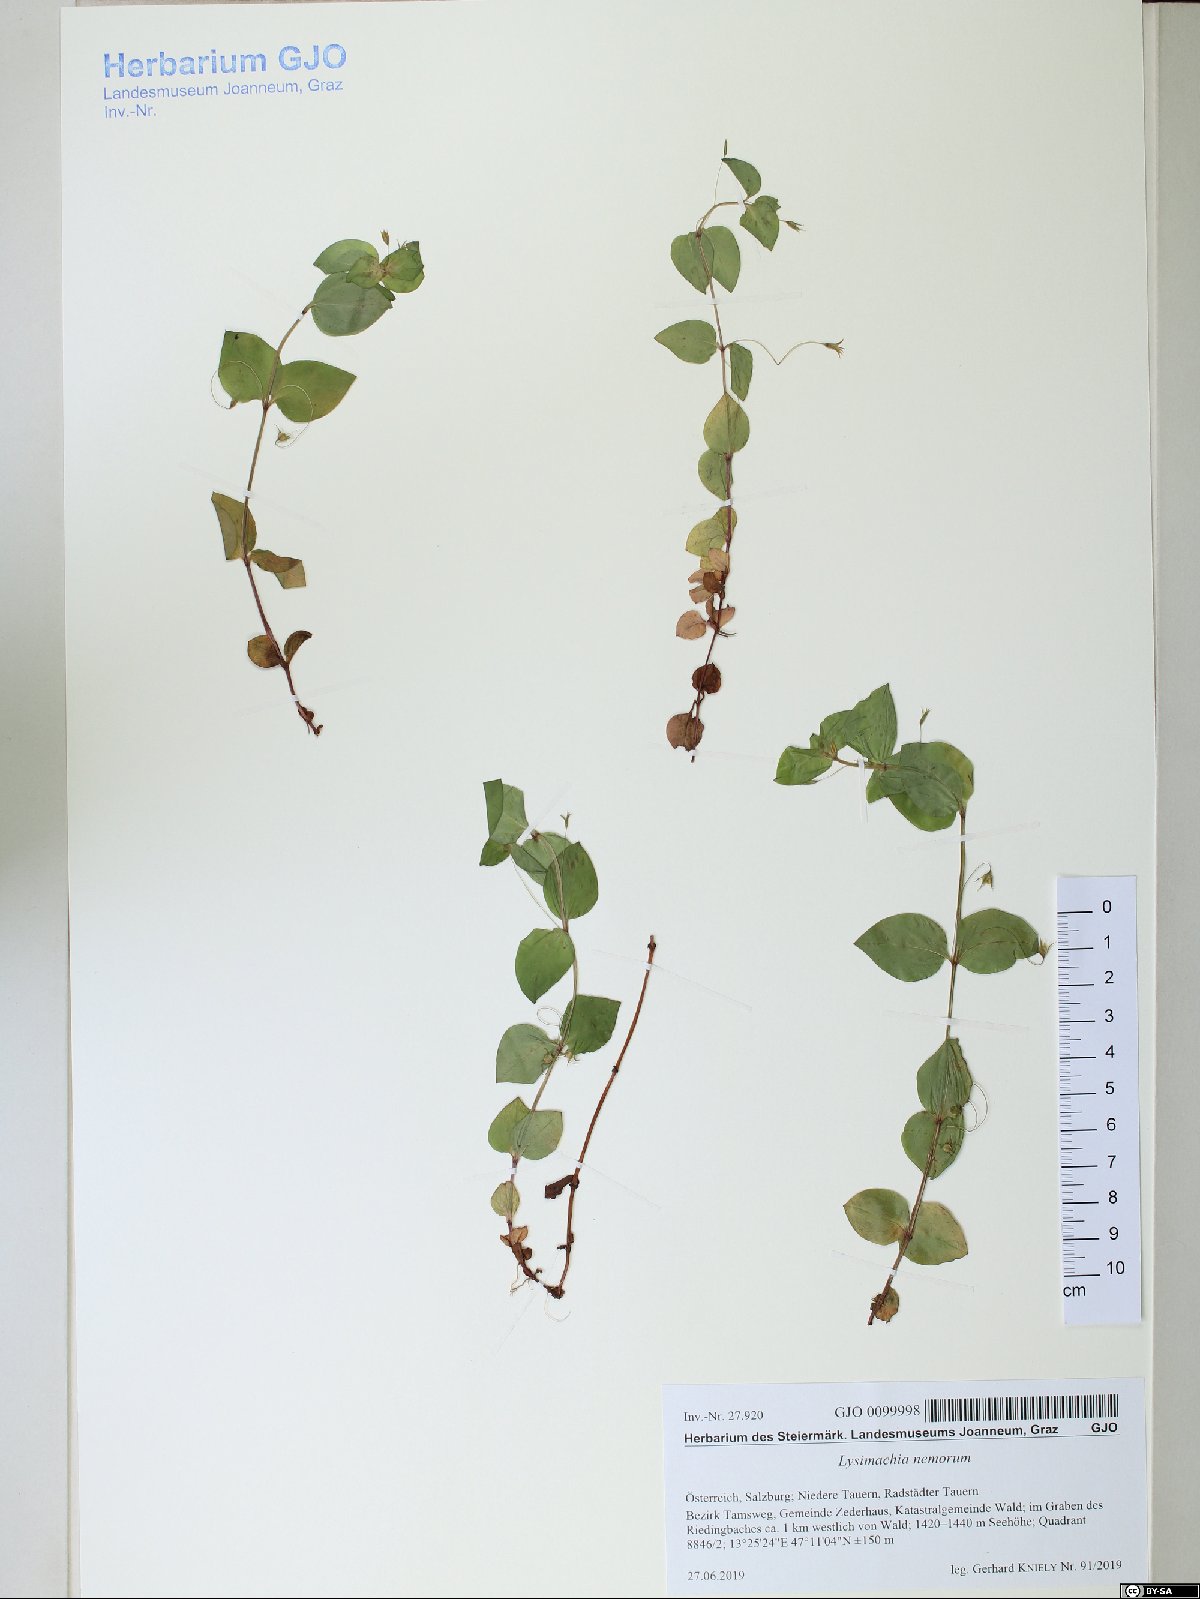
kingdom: Plantae
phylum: Tracheophyta
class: Magnoliopsida
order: Ericales
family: Primulaceae
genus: Lysimachia
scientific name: Lysimachia nemorum
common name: Yellow pimpernel
